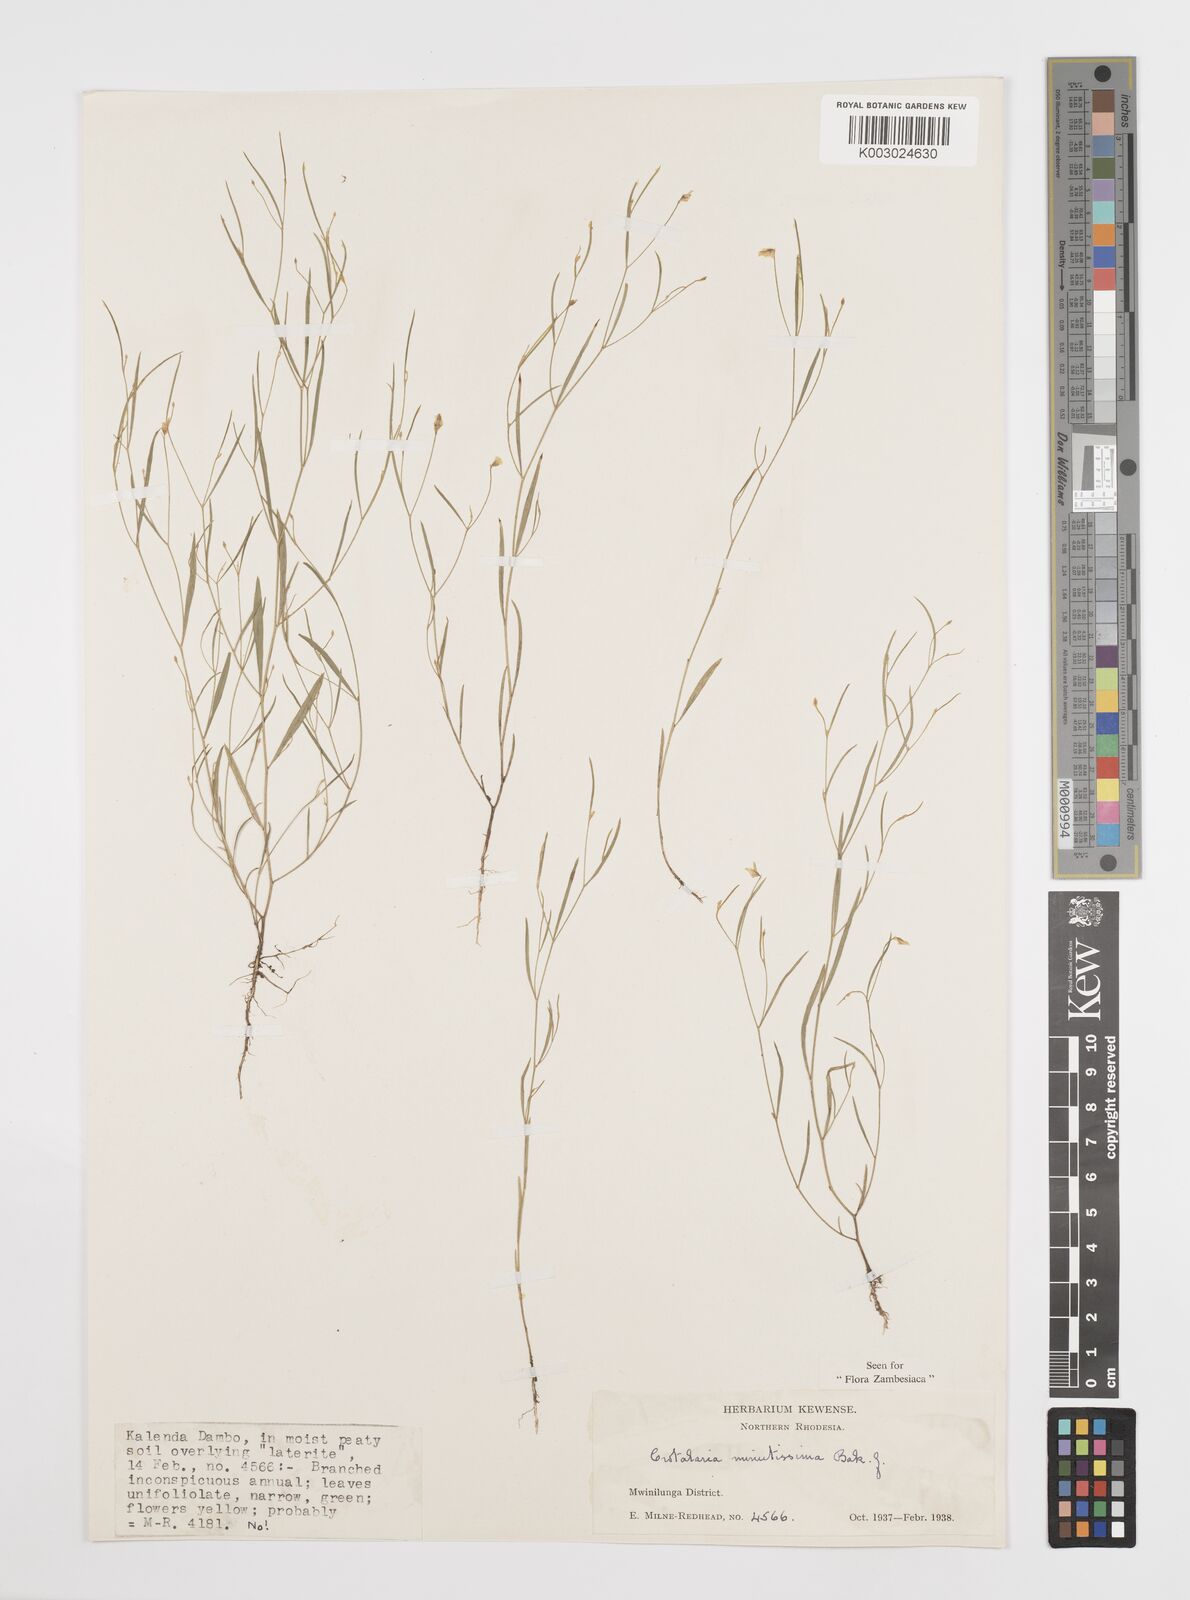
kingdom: Plantae
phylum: Tracheophyta
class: Magnoliopsida
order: Fabales
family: Fabaceae
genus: Crotalaria
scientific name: Crotalaria minutissima
